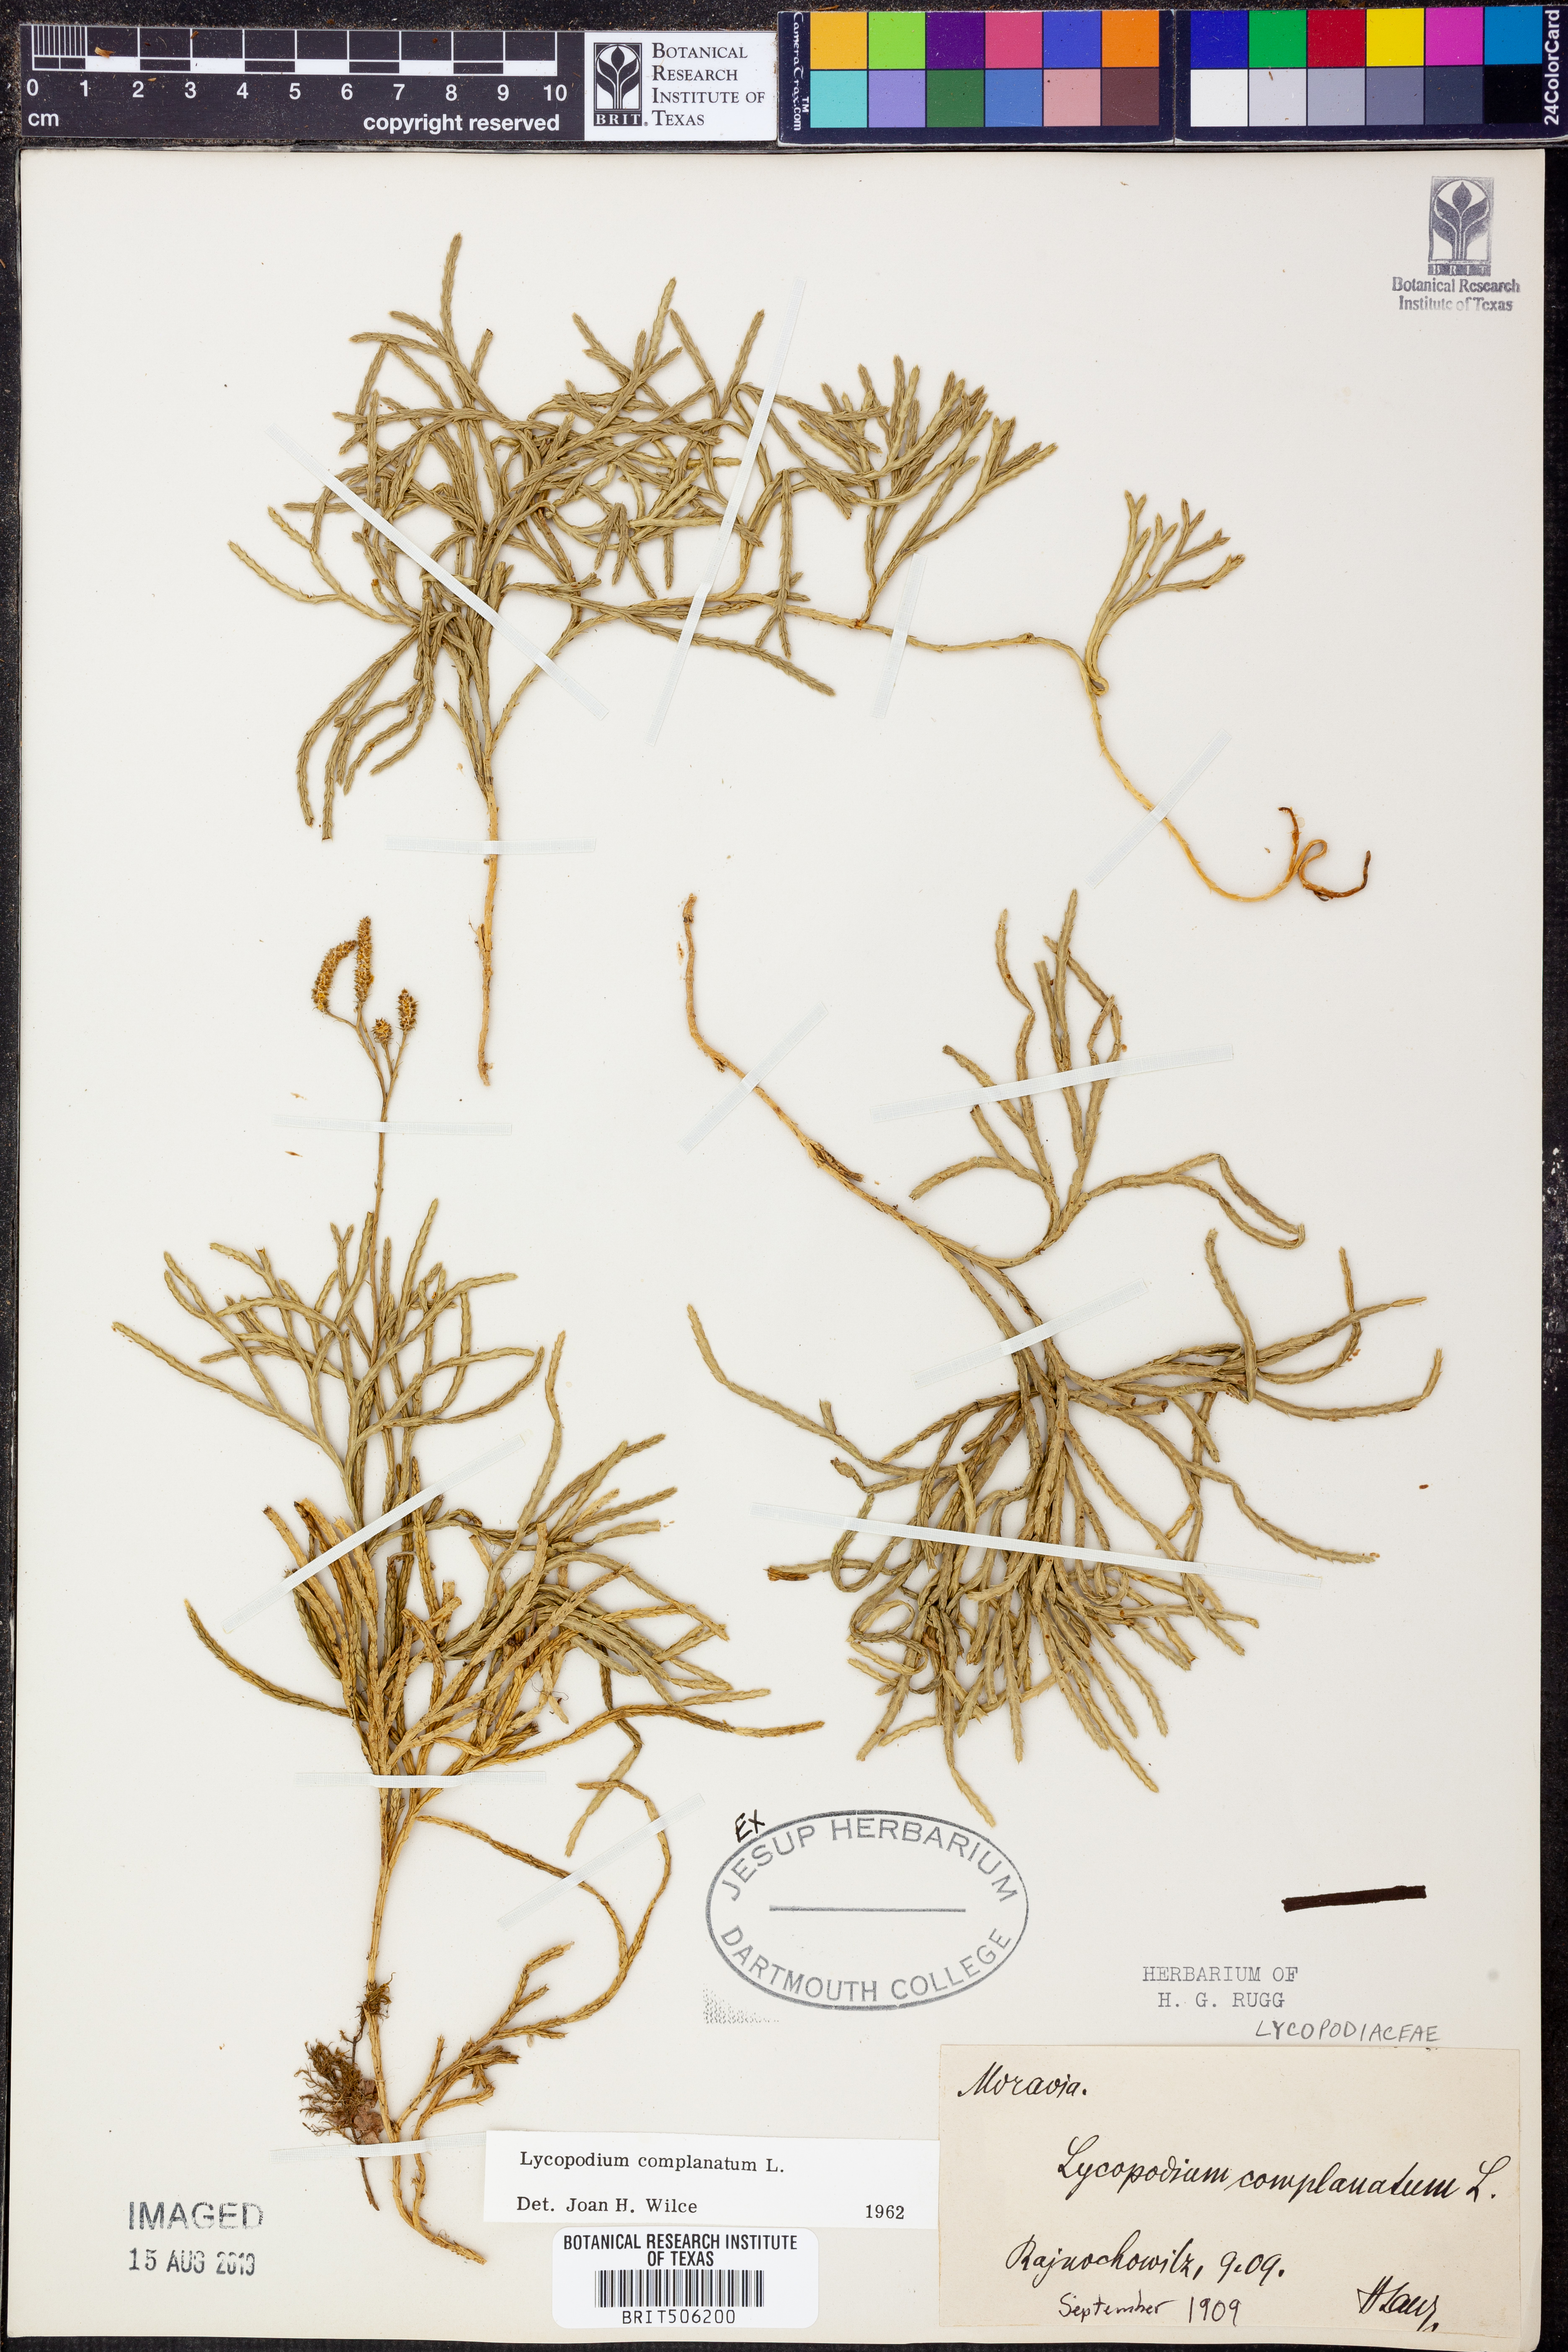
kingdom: Plantae
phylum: Tracheophyta
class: Lycopodiopsida
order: Lycopodiales
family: Lycopodiaceae
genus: Diphasiastrum
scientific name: Diphasiastrum complanatum
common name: Northern running-pine
